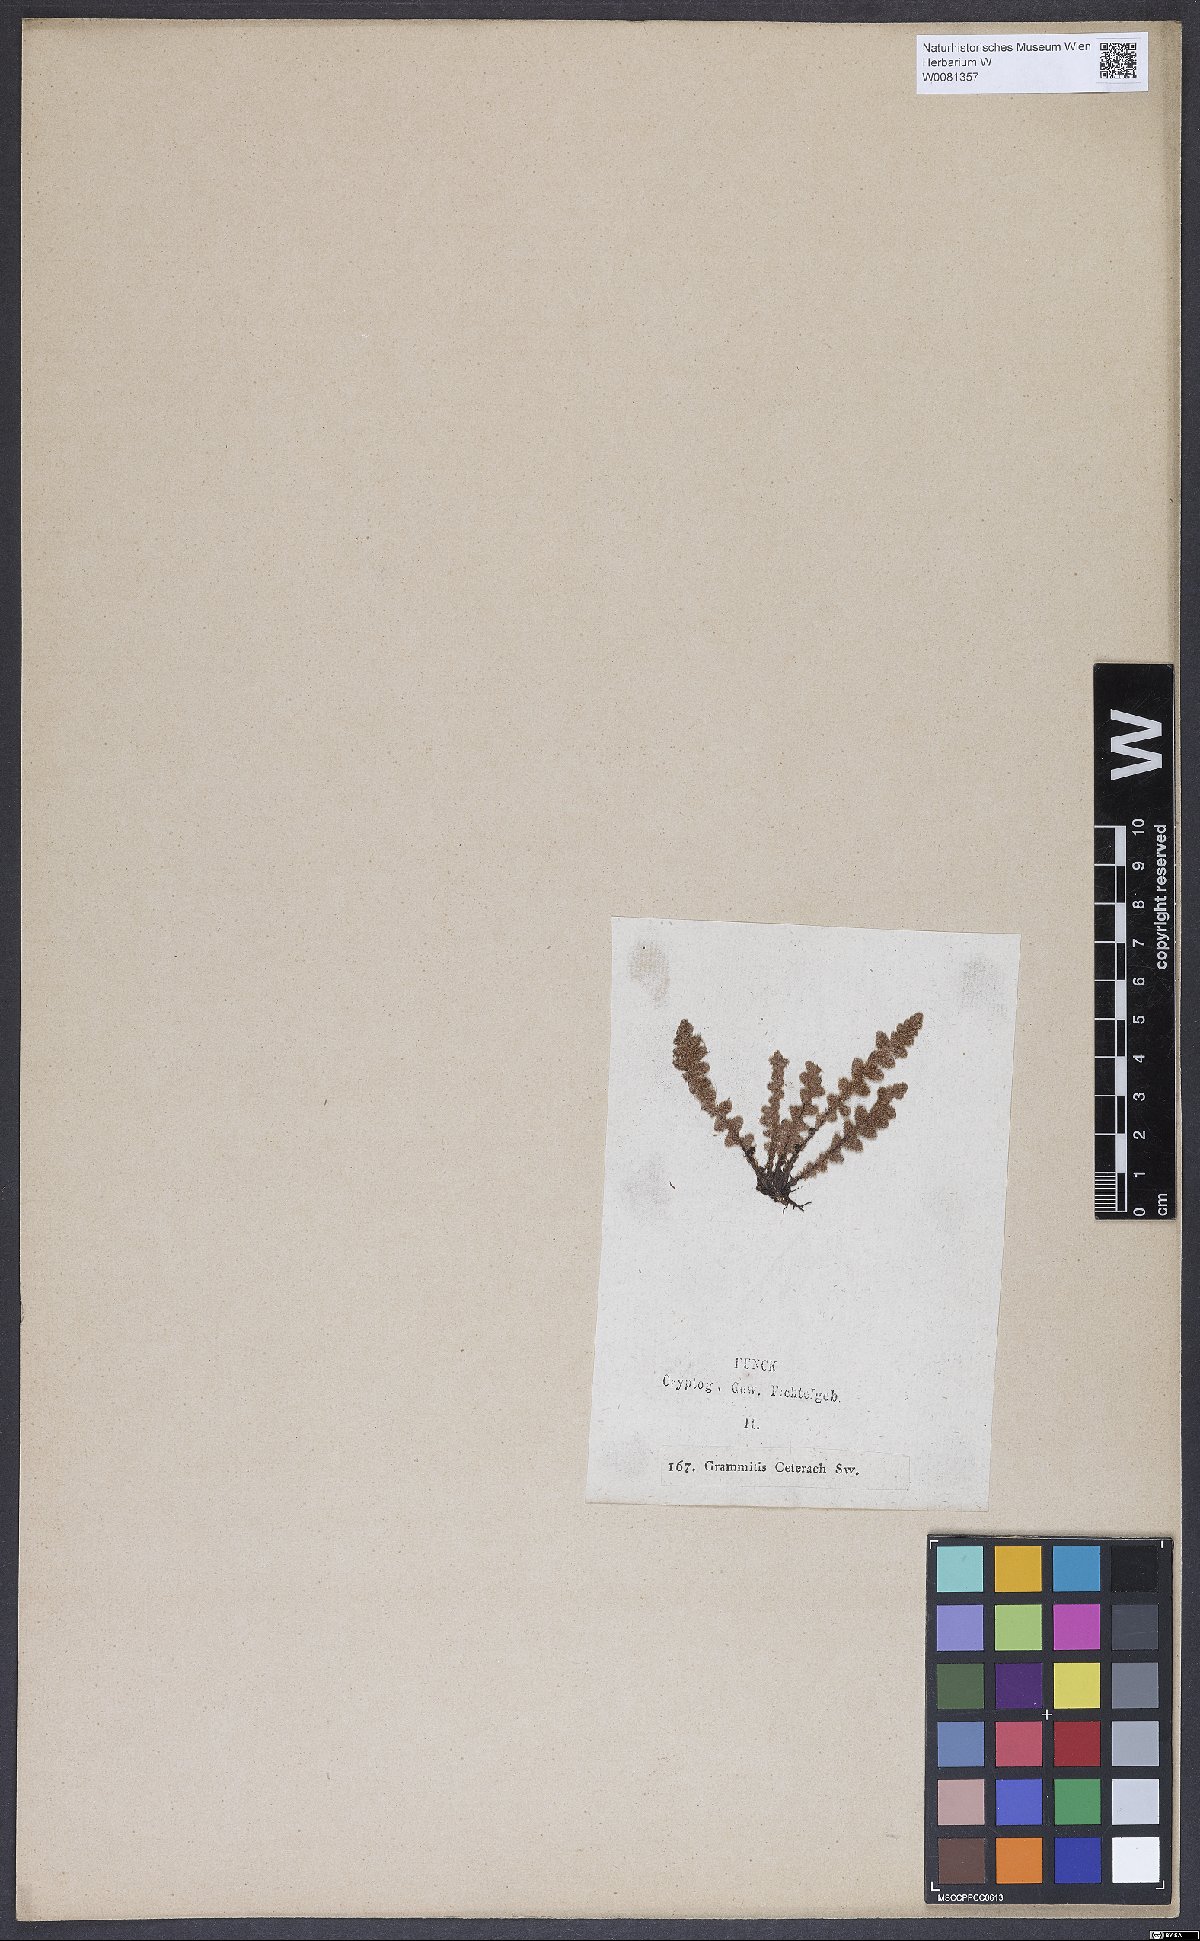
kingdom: Plantae
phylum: Tracheophyta
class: Polypodiopsida
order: Polypodiales
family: Aspleniaceae
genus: Asplenium
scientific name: Asplenium ceterach
